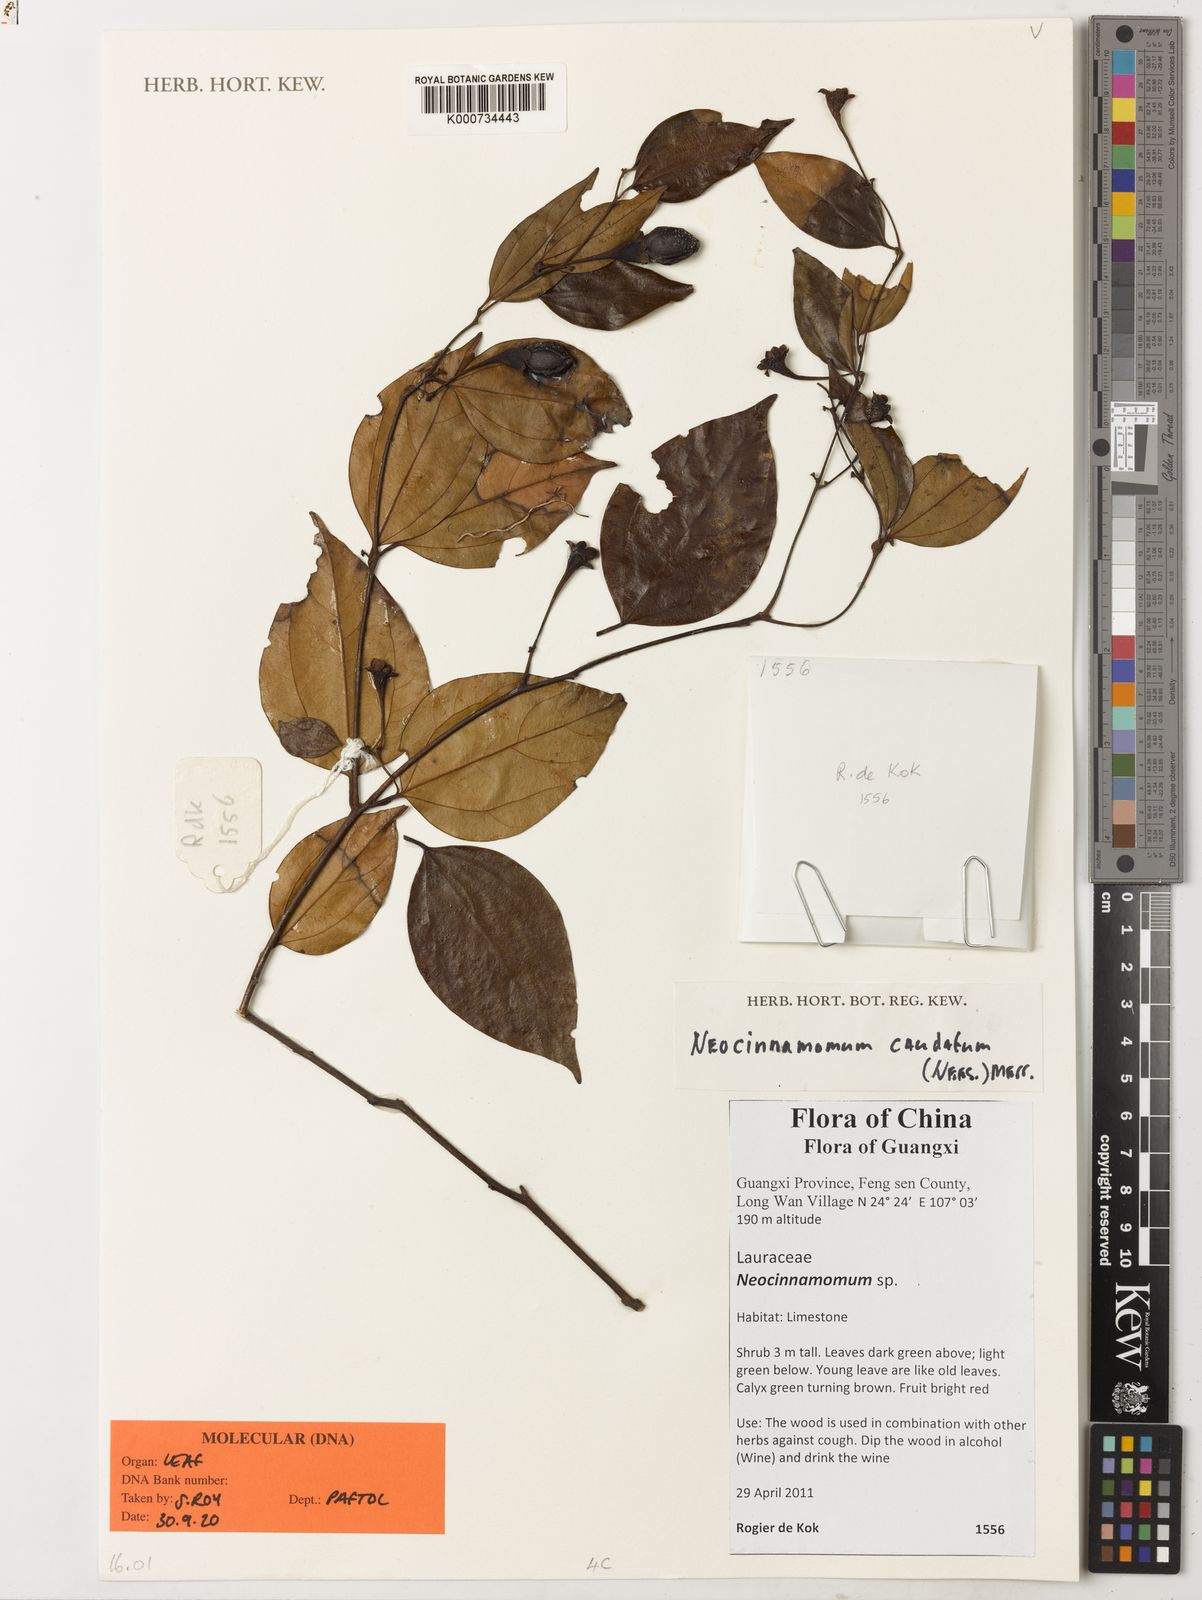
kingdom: Plantae
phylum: Tracheophyta
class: Magnoliopsida
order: Laurales
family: Lauraceae
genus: Neocinnamomum
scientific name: Neocinnamomum caudatum
